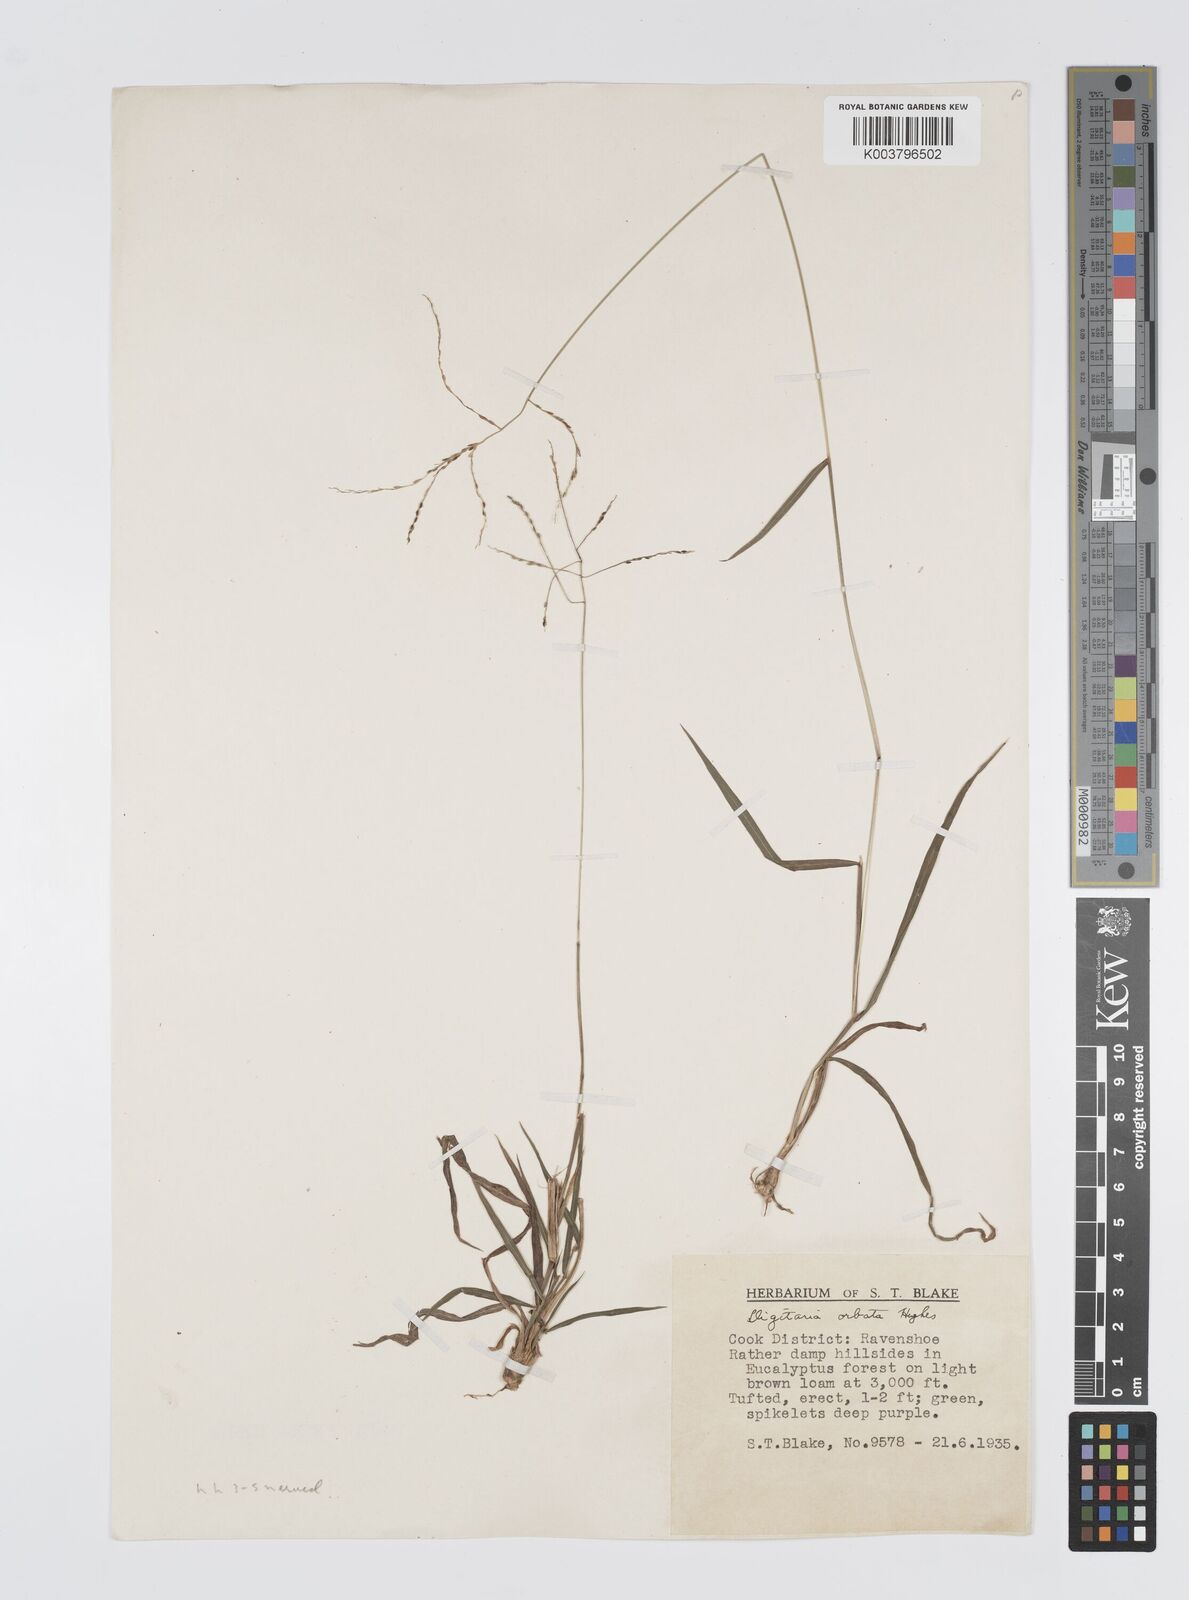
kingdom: Plantae
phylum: Tracheophyta
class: Liliopsida
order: Poales
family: Poaceae
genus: Digitaria
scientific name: Digitaria orbata
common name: Crabgrass
